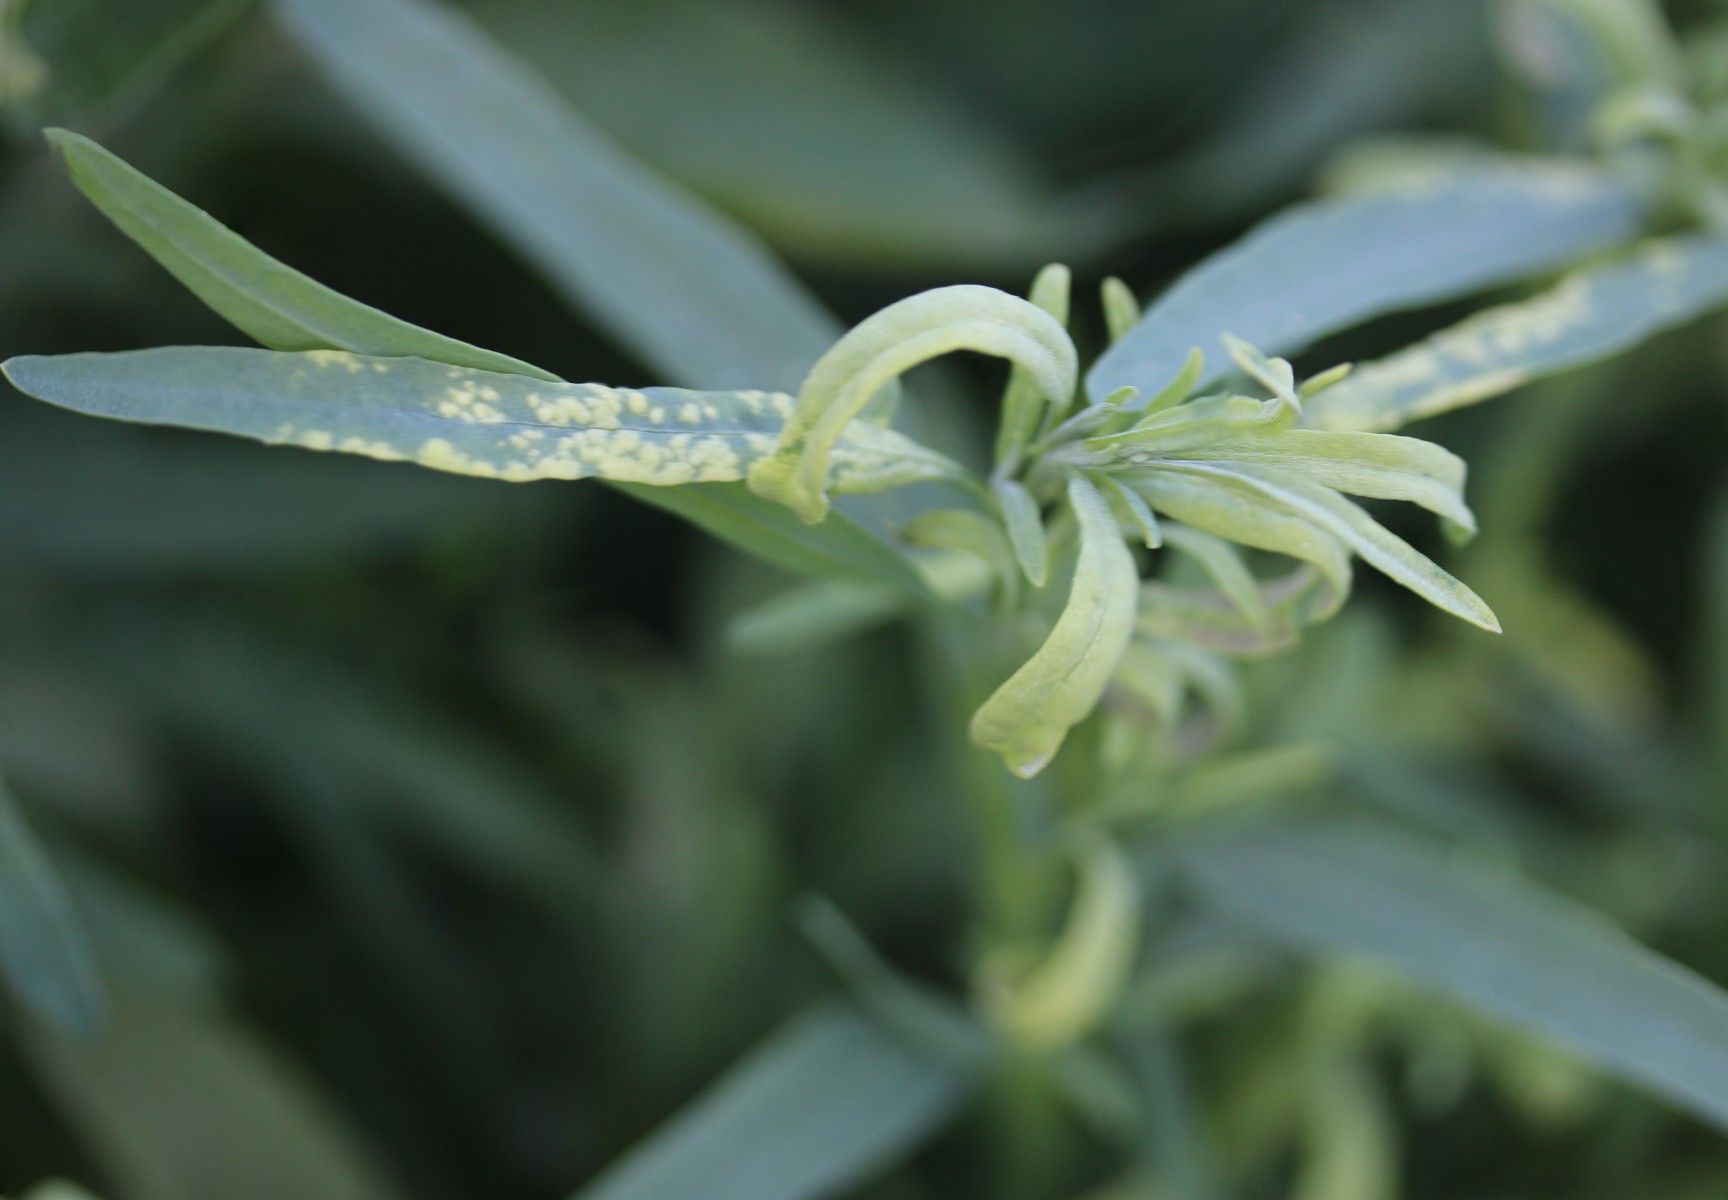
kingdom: Fungi
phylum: Blastocladiomycota
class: Blastocladiomycetes
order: Physodermatales
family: Physodermataceae
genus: Physoderma
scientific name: Physoderma pulposum
